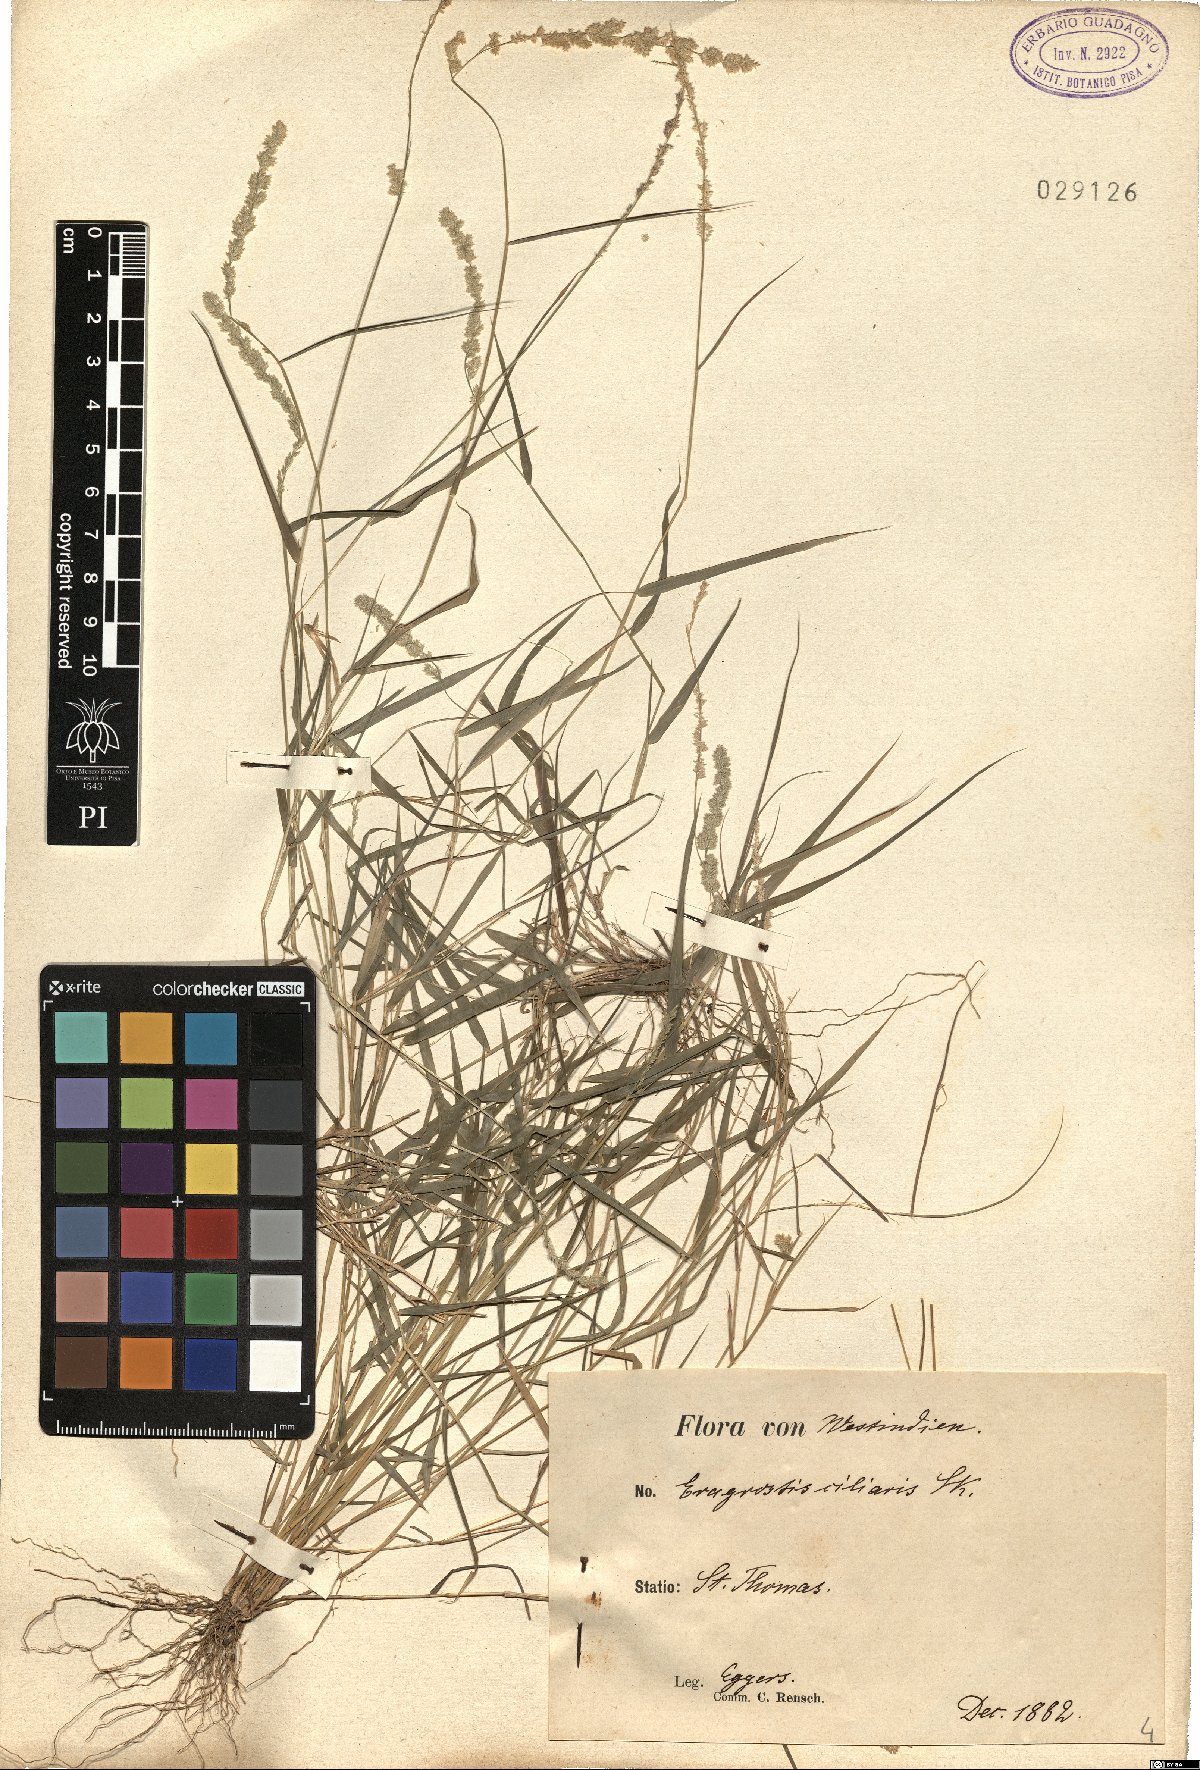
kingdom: Plantae
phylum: Tracheophyta
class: Liliopsida
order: Poales
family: Poaceae
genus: Eragrostis
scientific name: Eragrostis ciliaris
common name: Gophertail lovegrass
